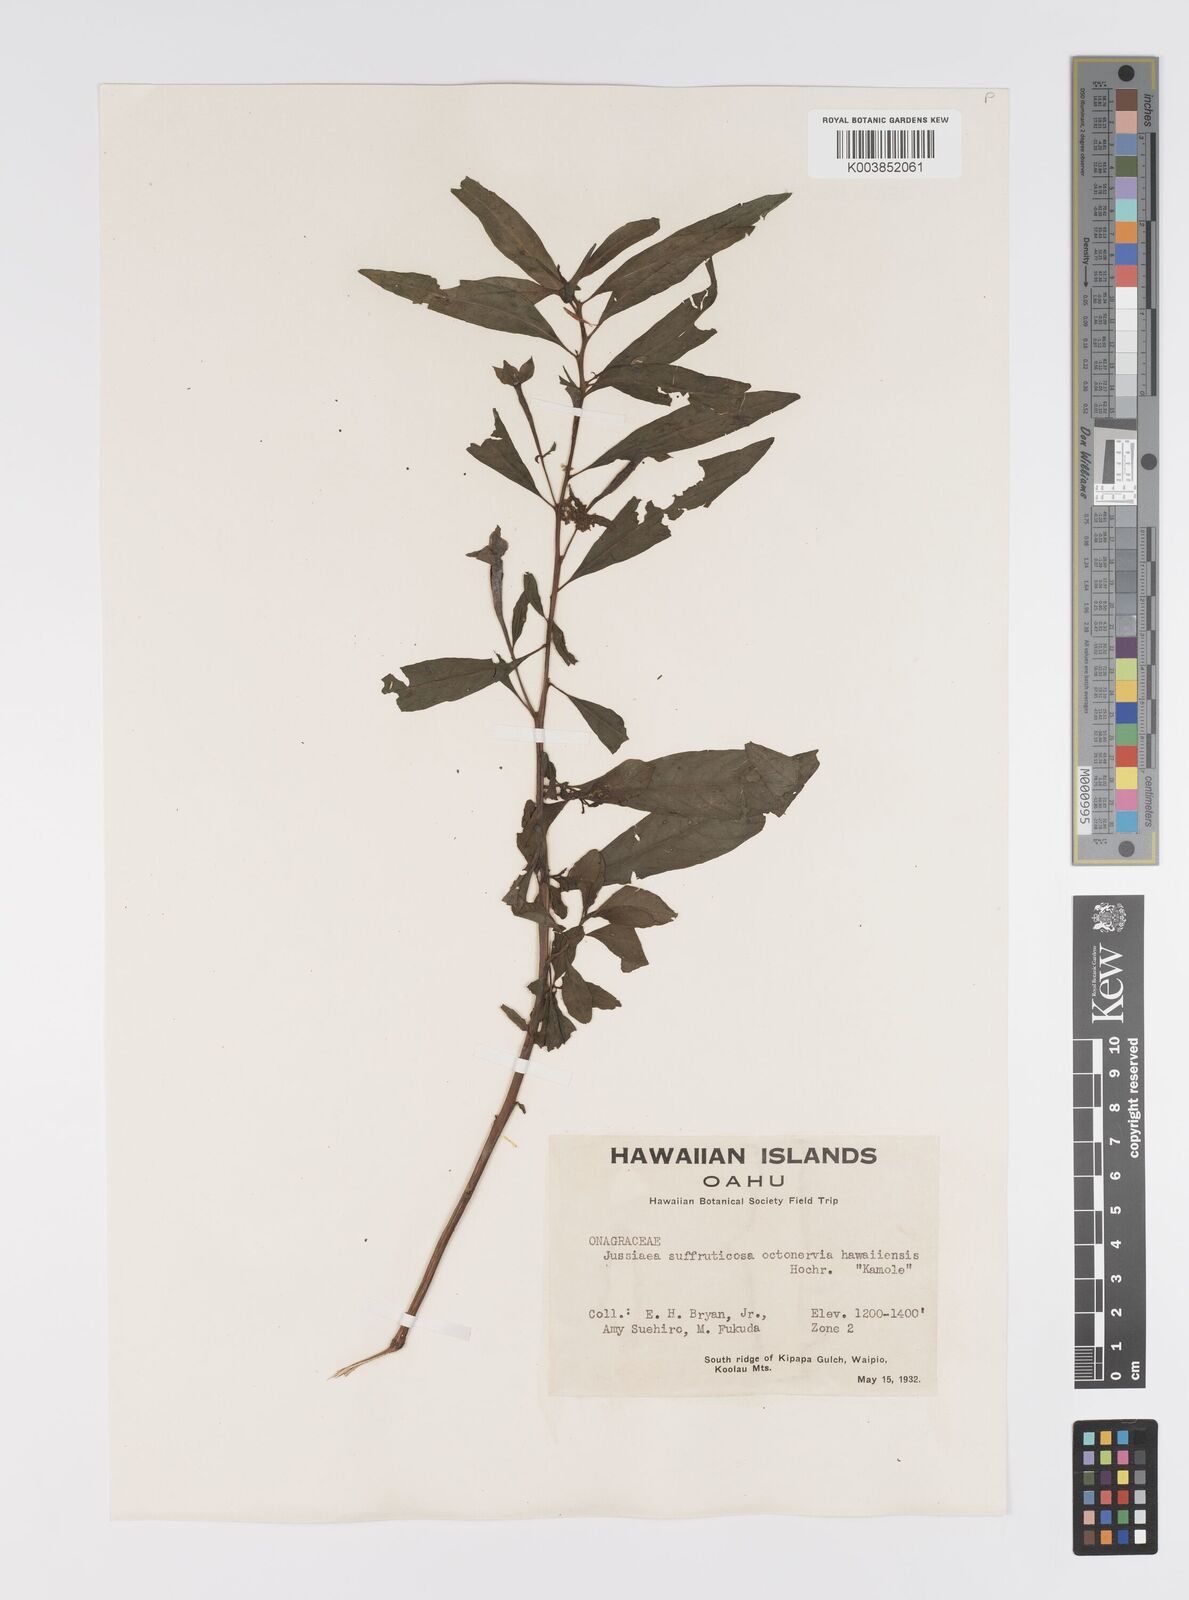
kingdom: Plantae
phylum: Tracheophyta
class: Magnoliopsida
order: Myrtales
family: Onagraceae
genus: Ludwigia
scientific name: Ludwigia octovalvis
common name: Water-primrose
